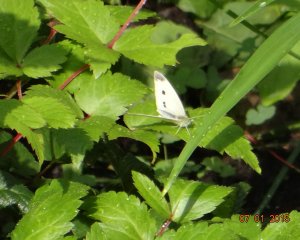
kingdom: Animalia
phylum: Arthropoda
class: Insecta
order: Lepidoptera
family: Pieridae
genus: Pieris
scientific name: Pieris rapae
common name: Cabbage White
